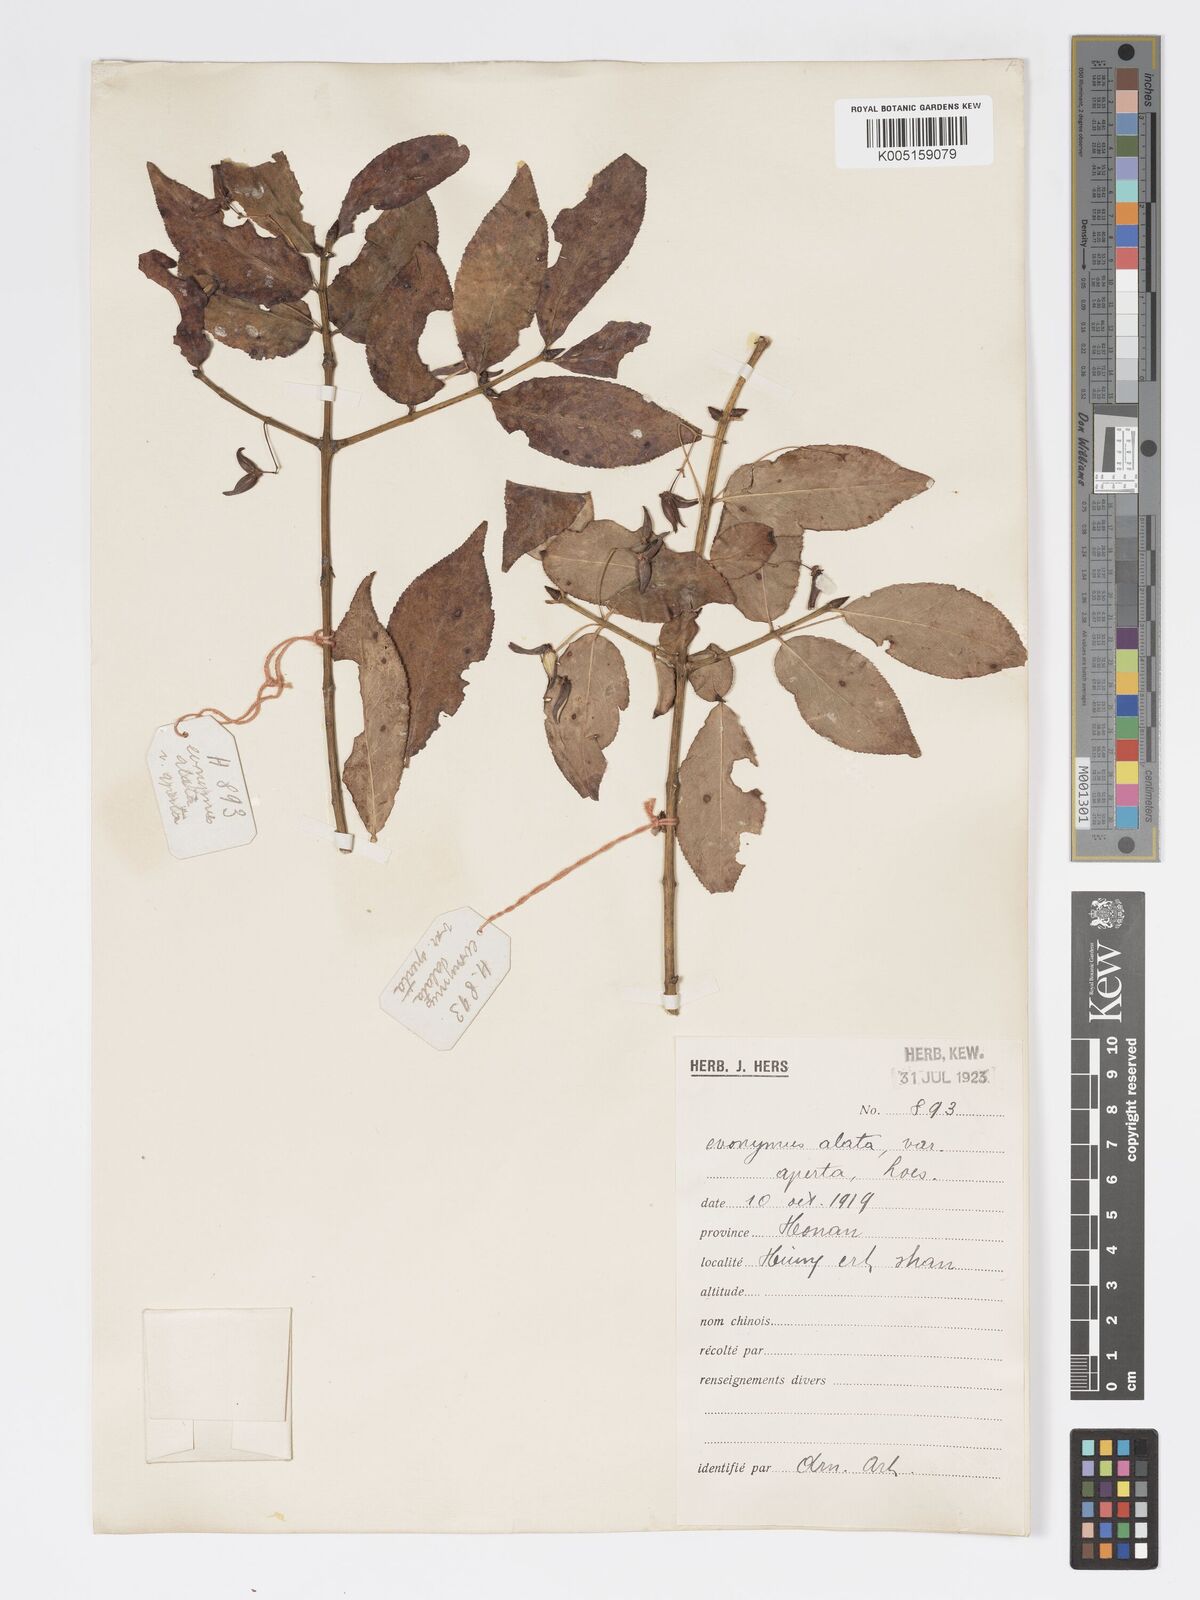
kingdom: Plantae
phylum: Tracheophyta
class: Magnoliopsida
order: Celastrales
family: Celastraceae
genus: Euonymus
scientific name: Euonymus
